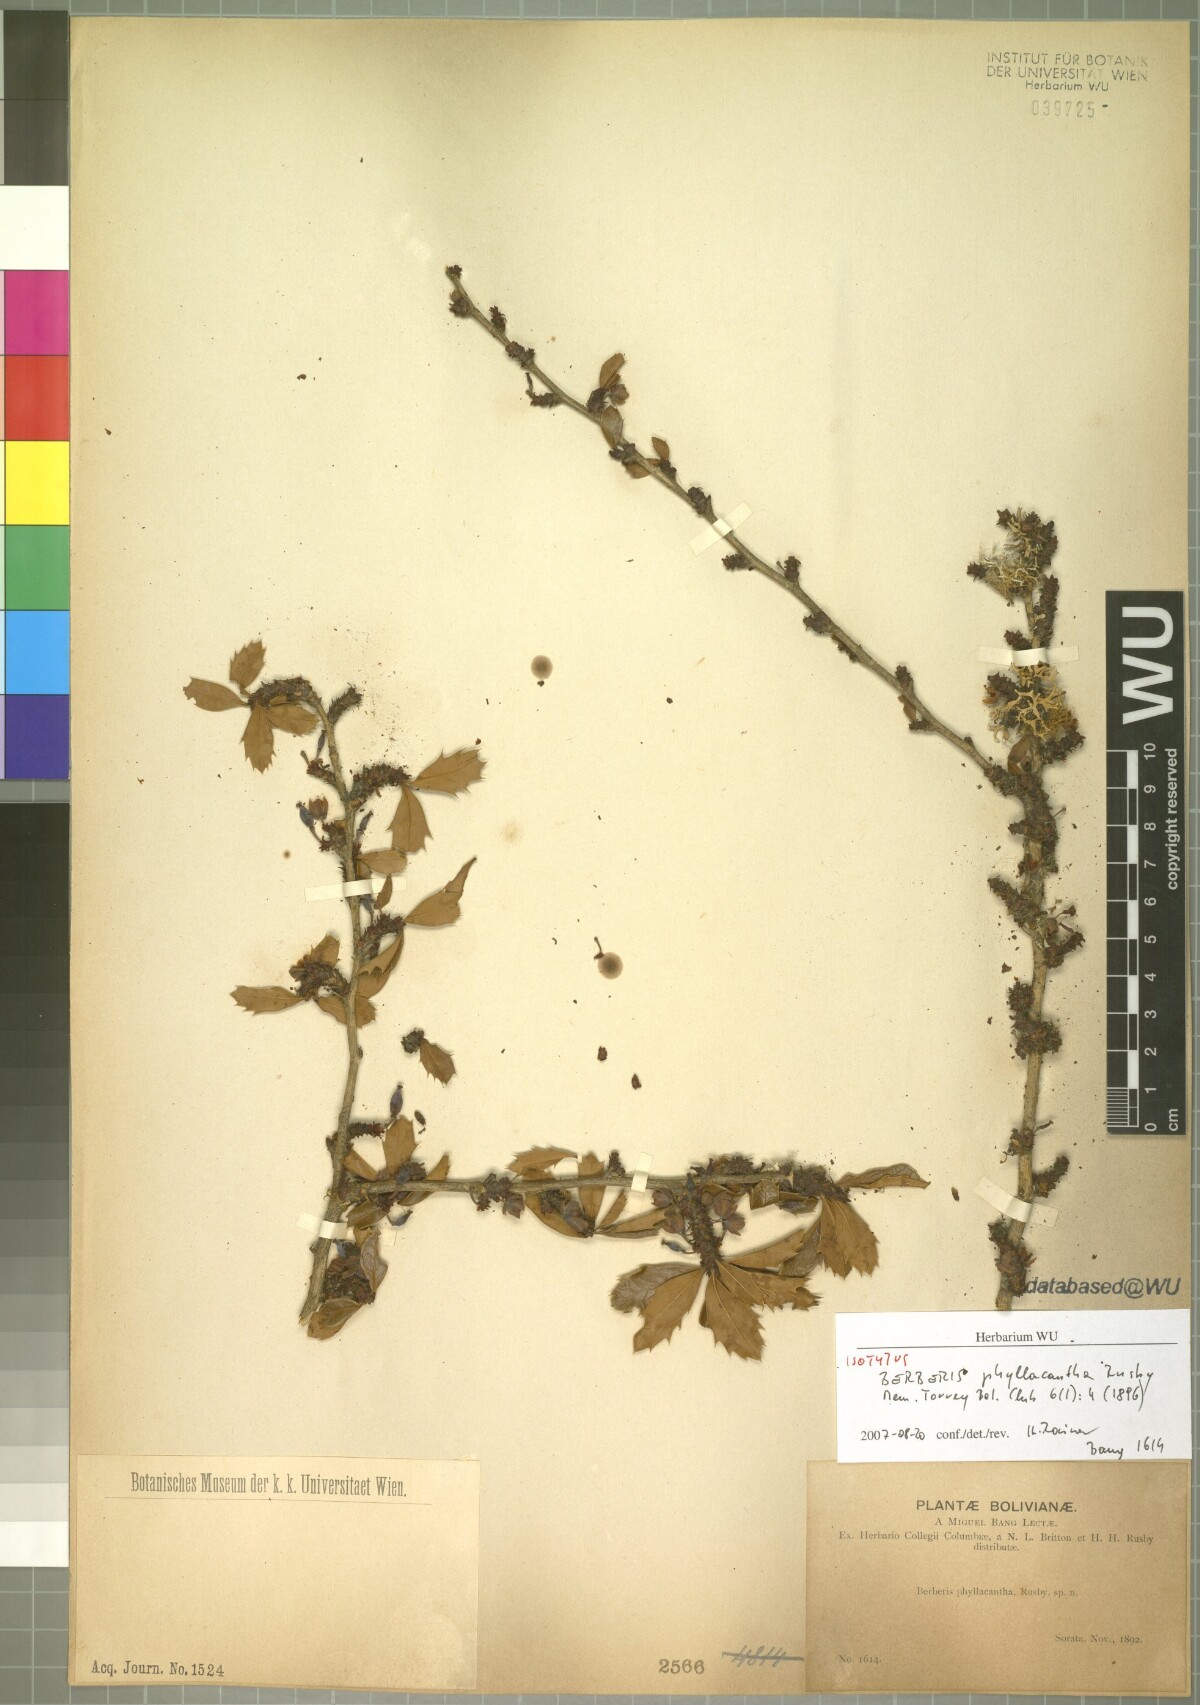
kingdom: Plantae
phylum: Tracheophyta
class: Magnoliopsida
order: Ranunculales
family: Berberidaceae
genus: Berberis
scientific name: Berberis phyllacantha
